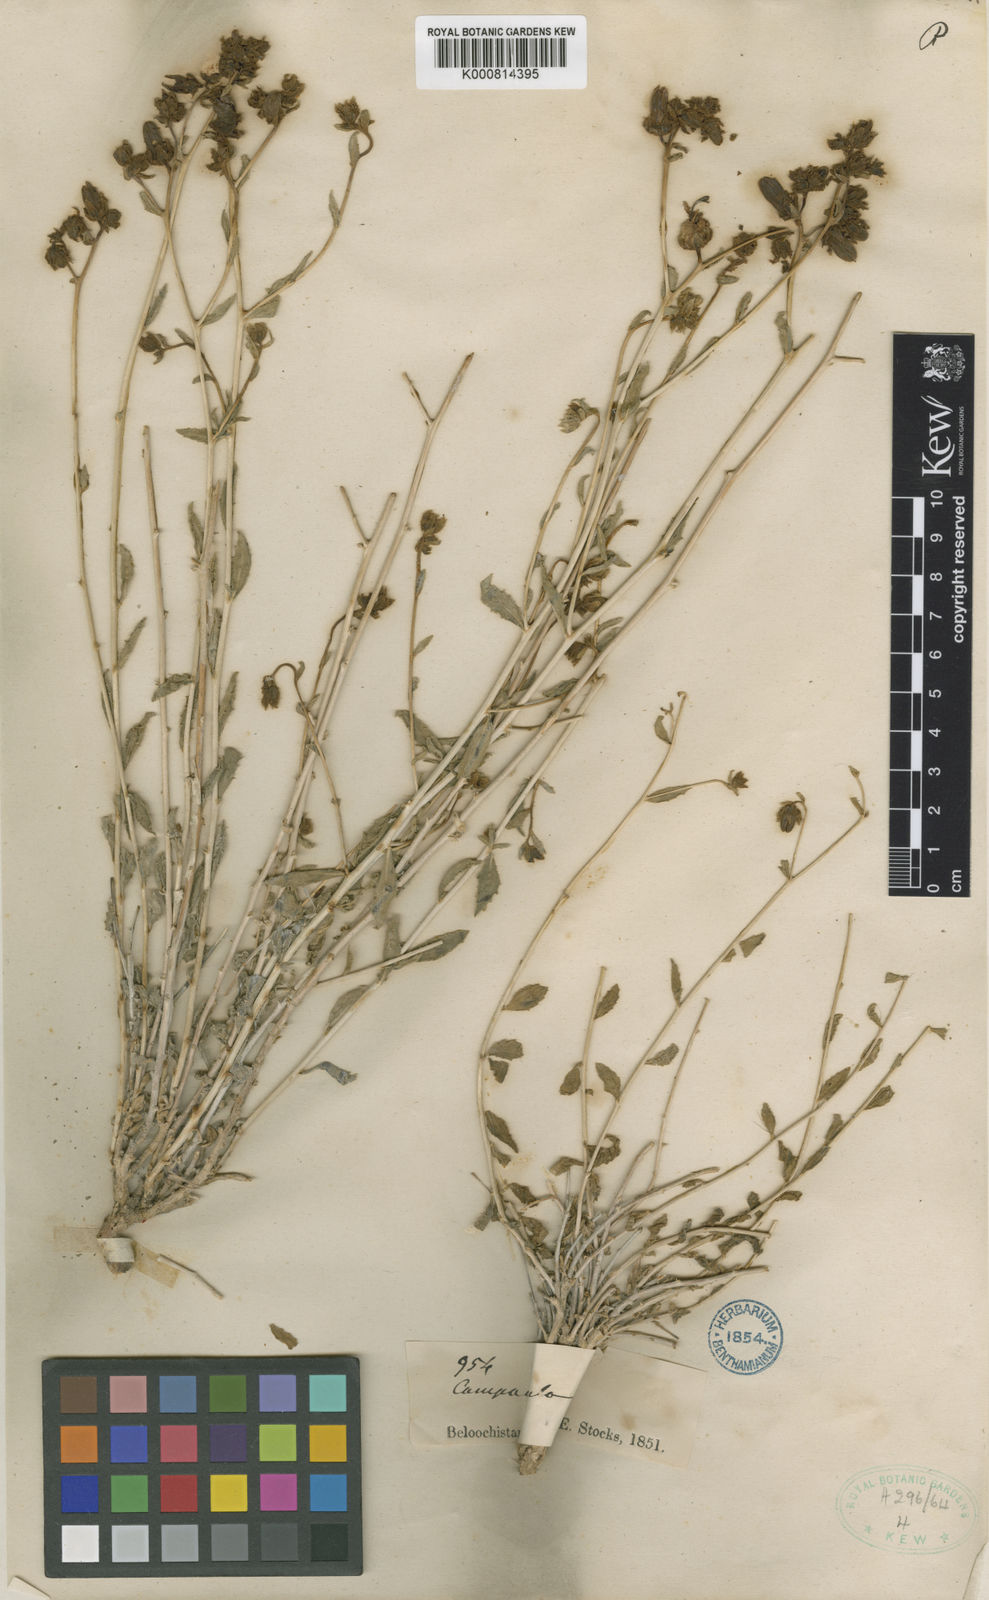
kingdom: Plantae
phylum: Tracheophyta
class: Magnoliopsida
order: Asterales
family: Campanulaceae
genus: Campanula
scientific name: Campanula leucoclada
